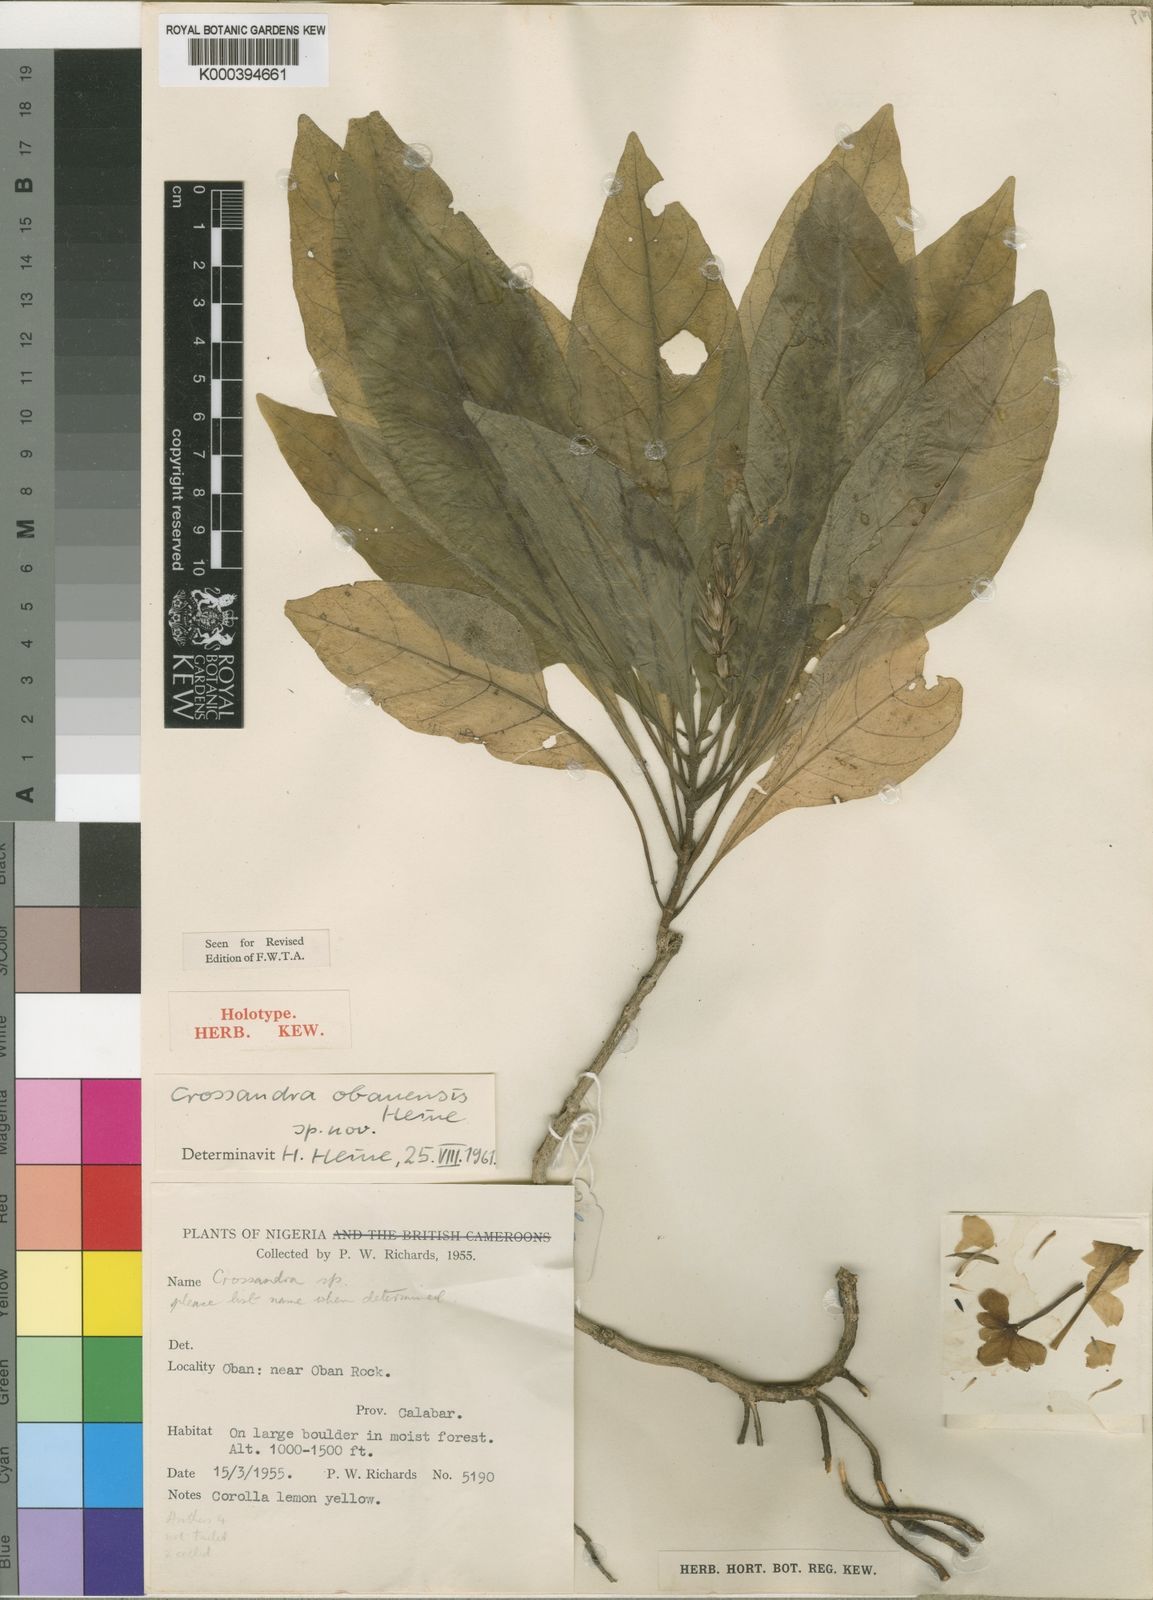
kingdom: Plantae
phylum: Tracheophyta
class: Magnoliopsida
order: Lamiales
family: Acanthaceae
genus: Crossandra
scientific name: Crossandra obanensis
